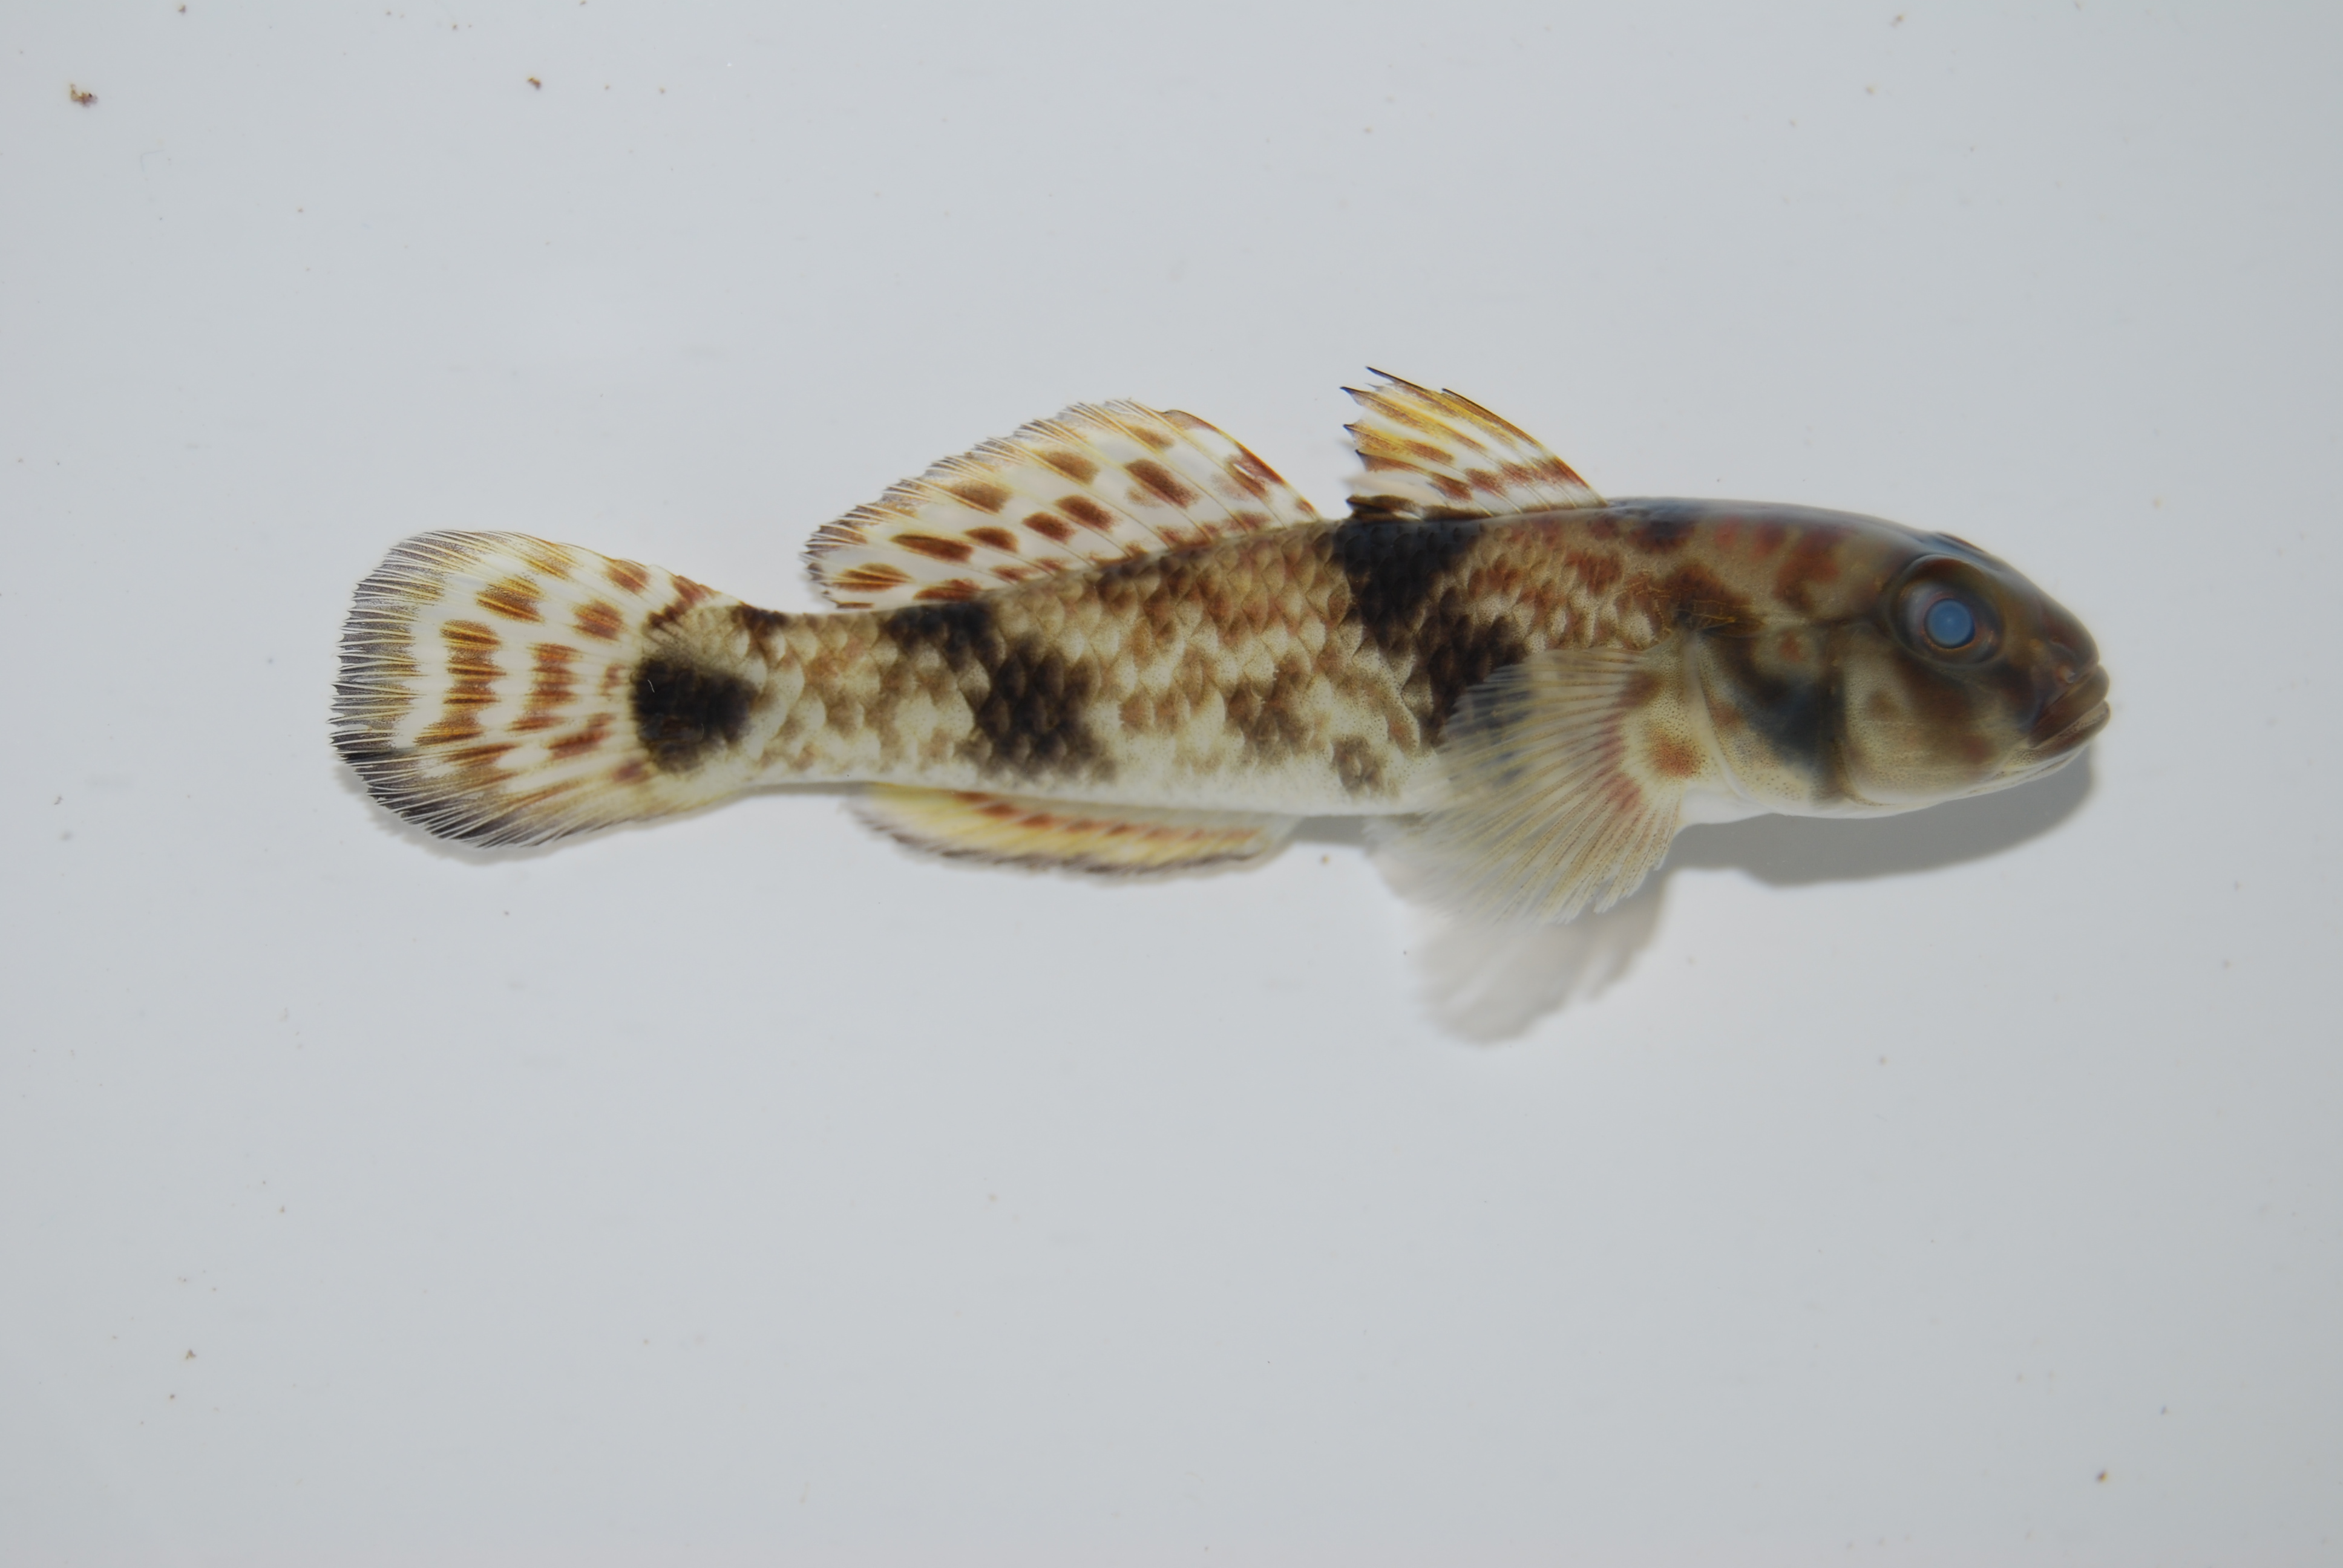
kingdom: Animalia
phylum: Chordata
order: Perciformes
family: Gobiidae
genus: Acentrogobius
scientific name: Acentrogobius nebulosus
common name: Shadow goby
